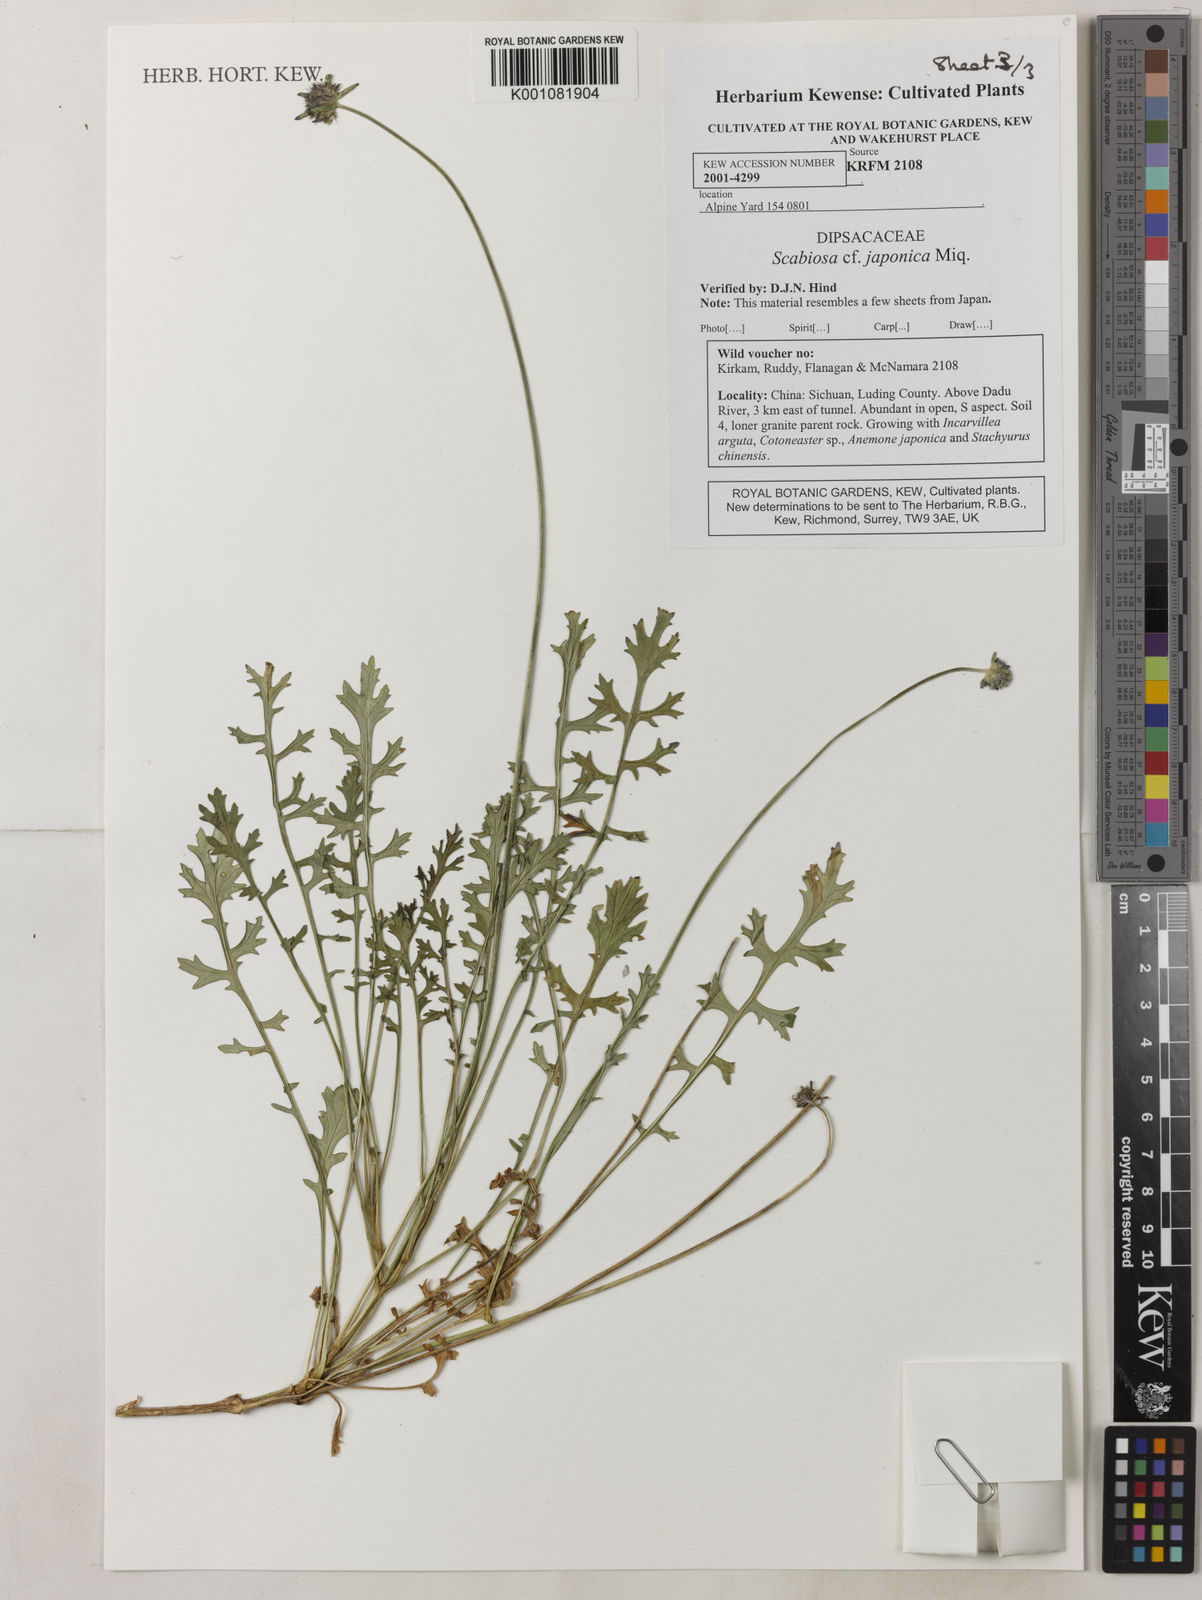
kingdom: Plantae
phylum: Tracheophyta
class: Magnoliopsida
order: Dipsacales
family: Caprifoliaceae
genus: Scabiosa
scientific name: Scabiosa japonica
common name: Pincushion-flower
